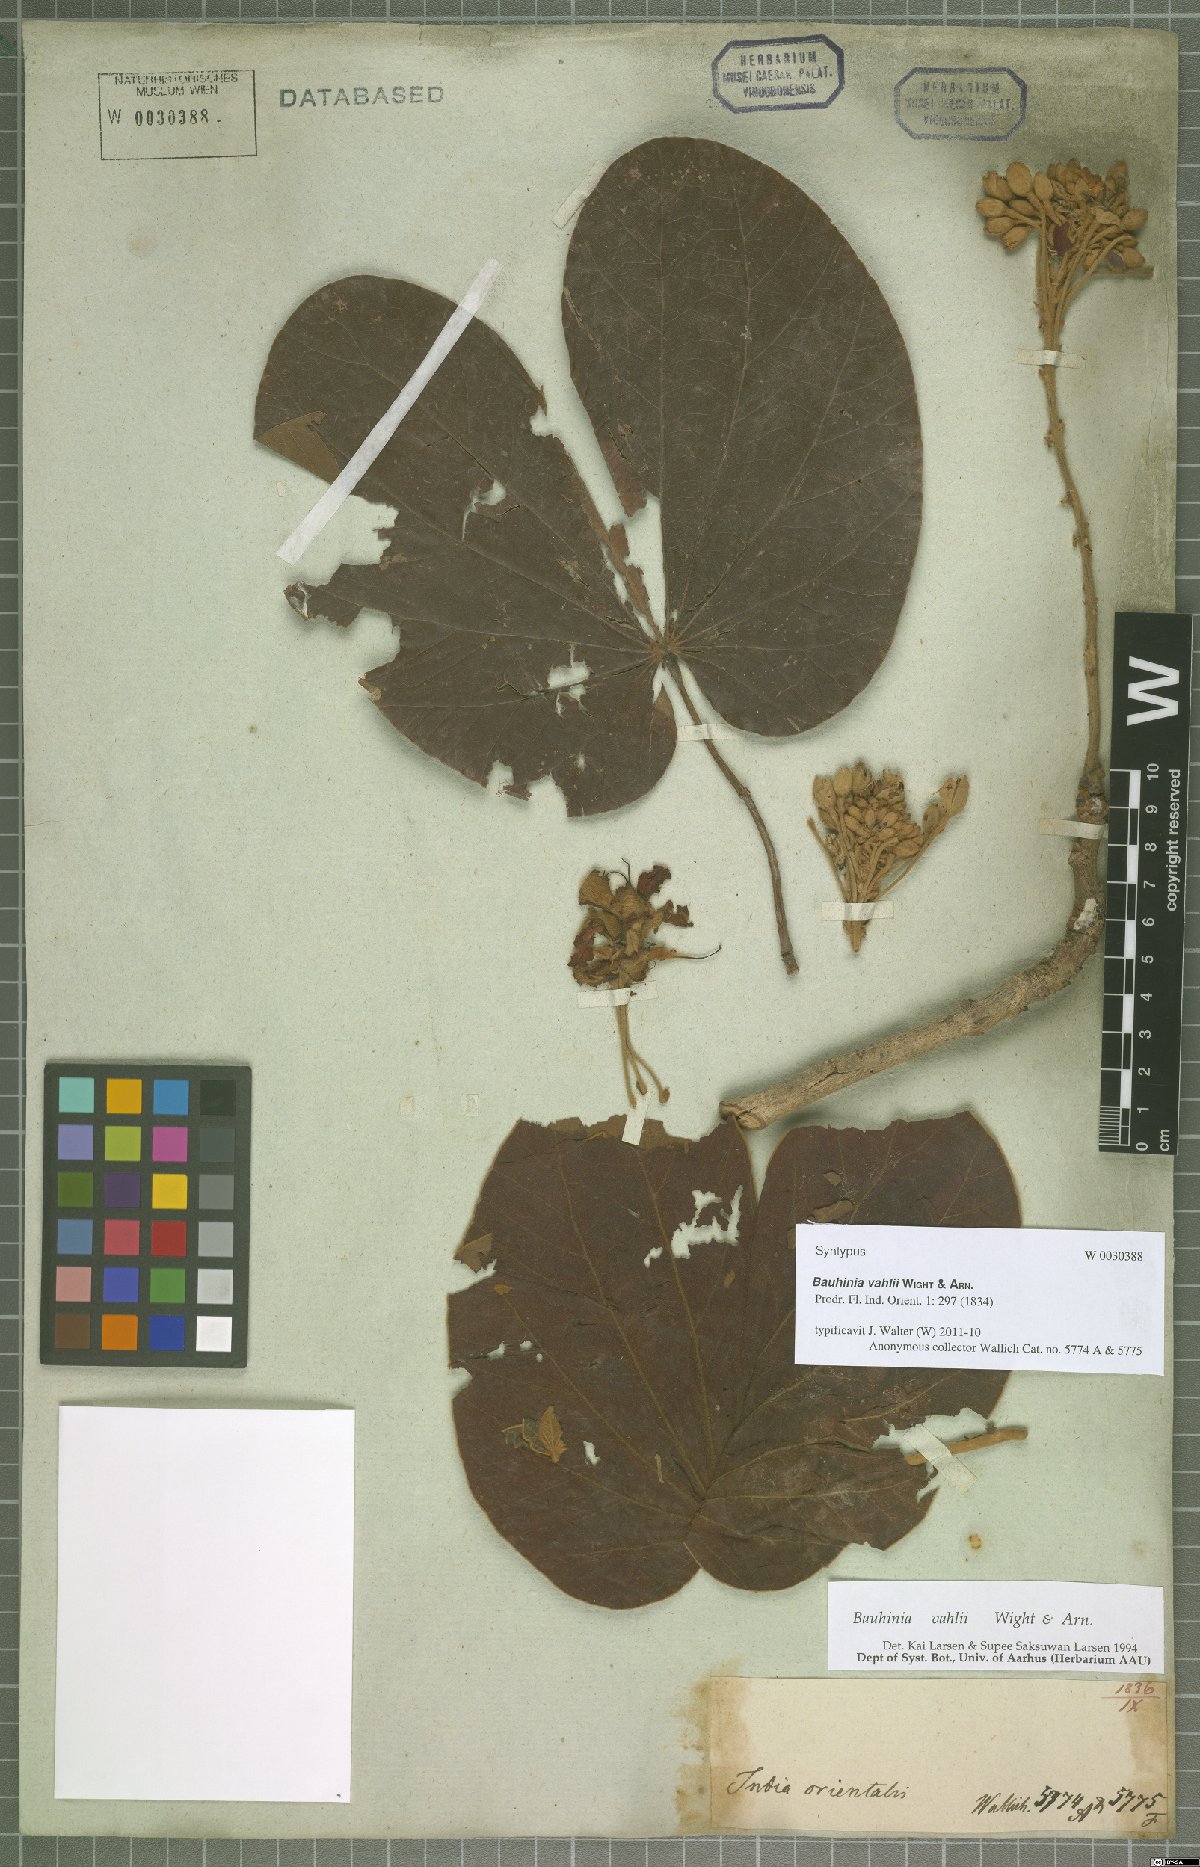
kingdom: Plantae
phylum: Tracheophyta
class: Magnoliopsida
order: Fabales
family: Fabaceae
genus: Phanera
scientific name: Phanera vahlii
